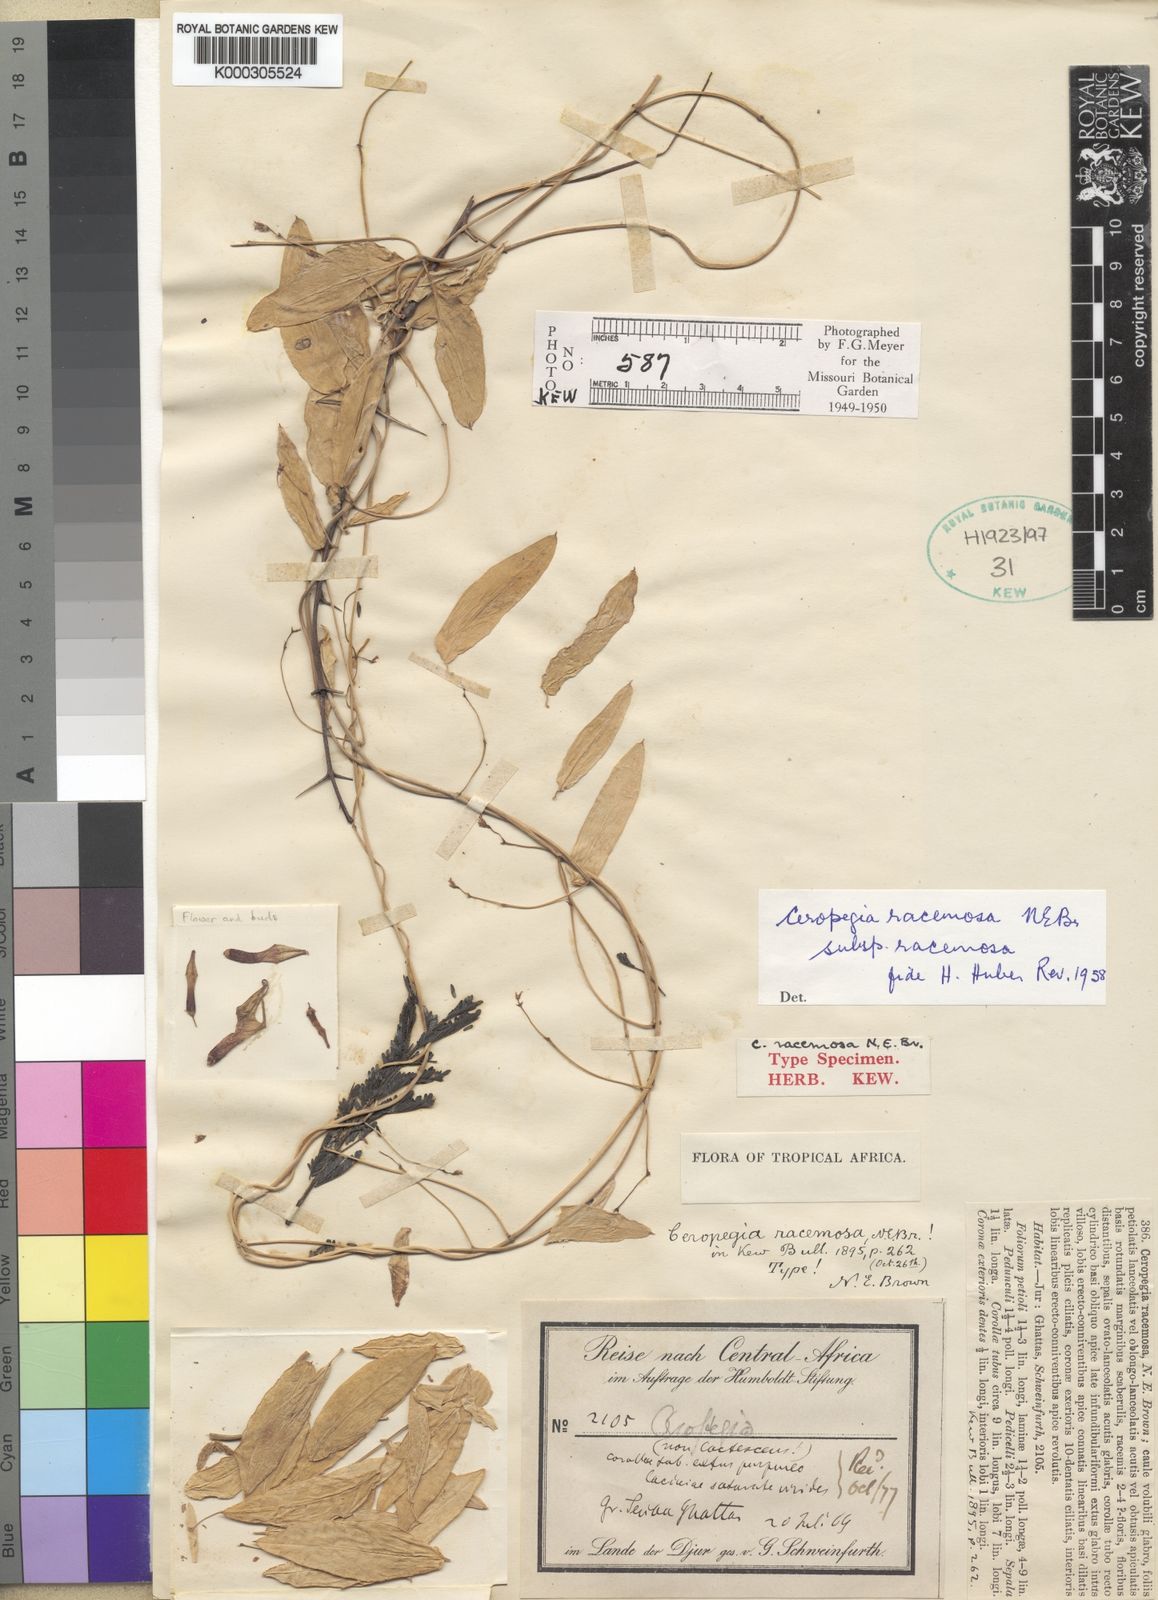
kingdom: Plantae
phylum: Tracheophyta
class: Magnoliopsida
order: Gentianales
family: Apocynaceae
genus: Ceropegia
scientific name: Ceropegia racemosa
